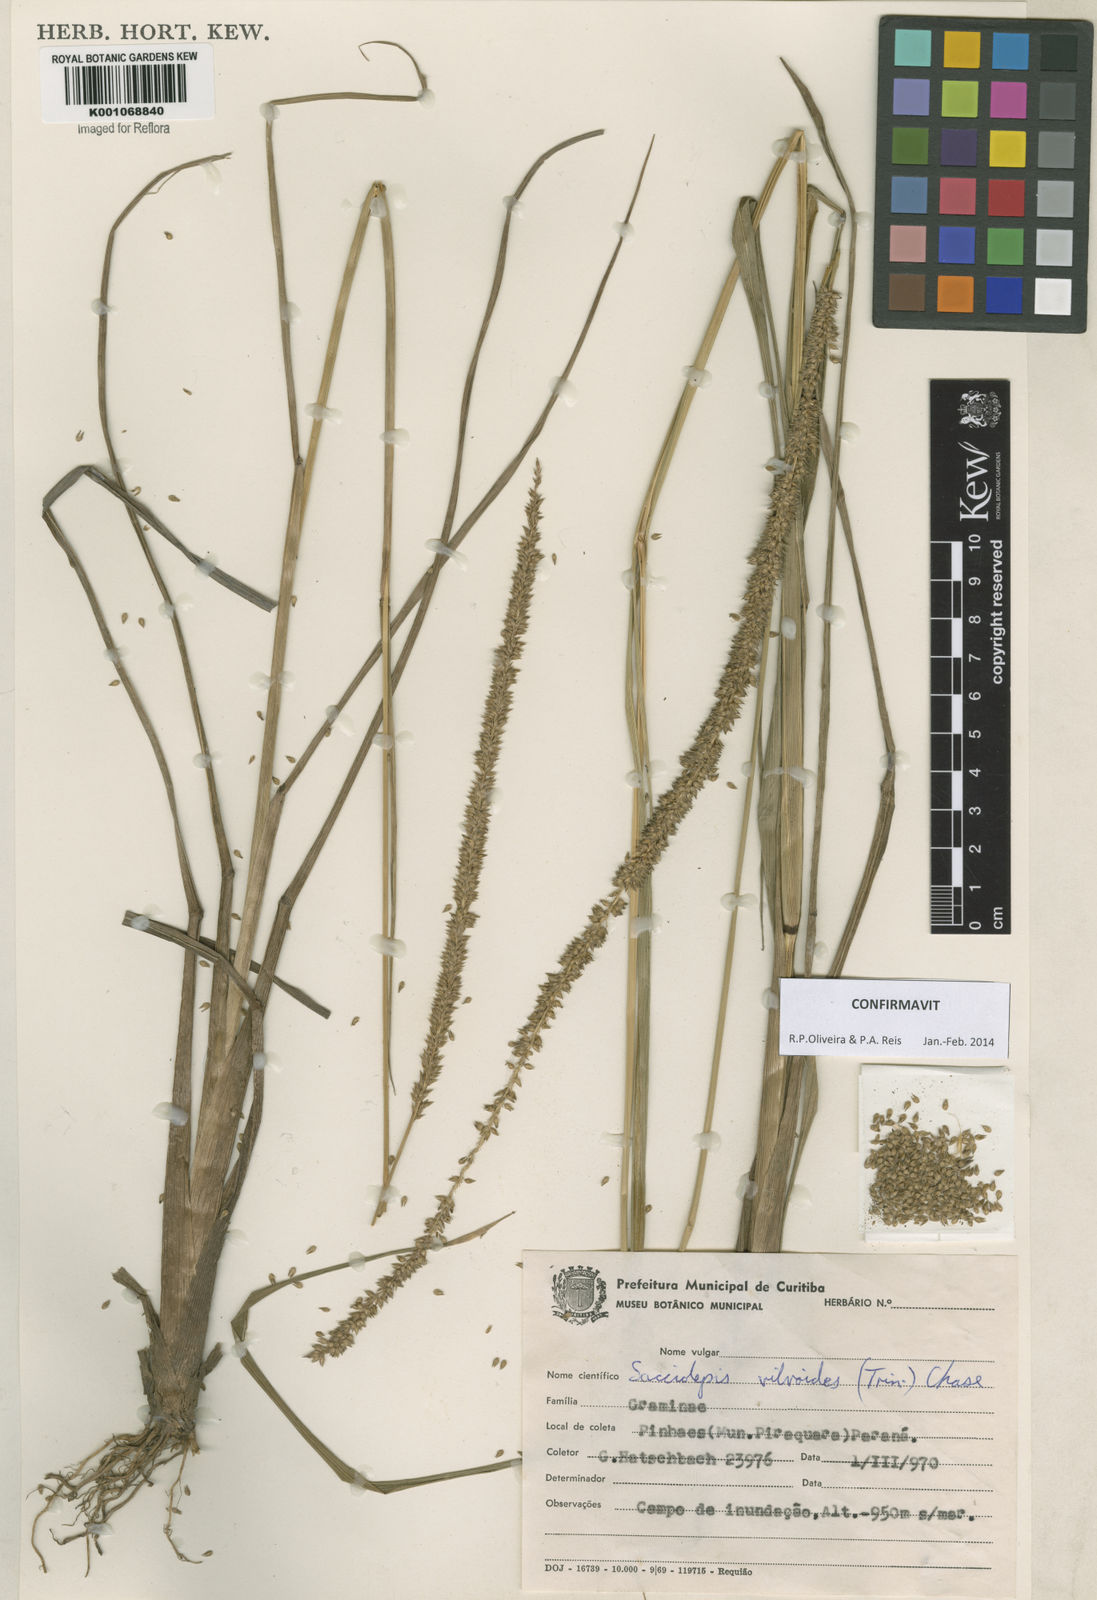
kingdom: Plantae
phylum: Tracheophyta
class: Liliopsida
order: Poales
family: Poaceae
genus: Sacciolepis
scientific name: Sacciolepis vilvoides
